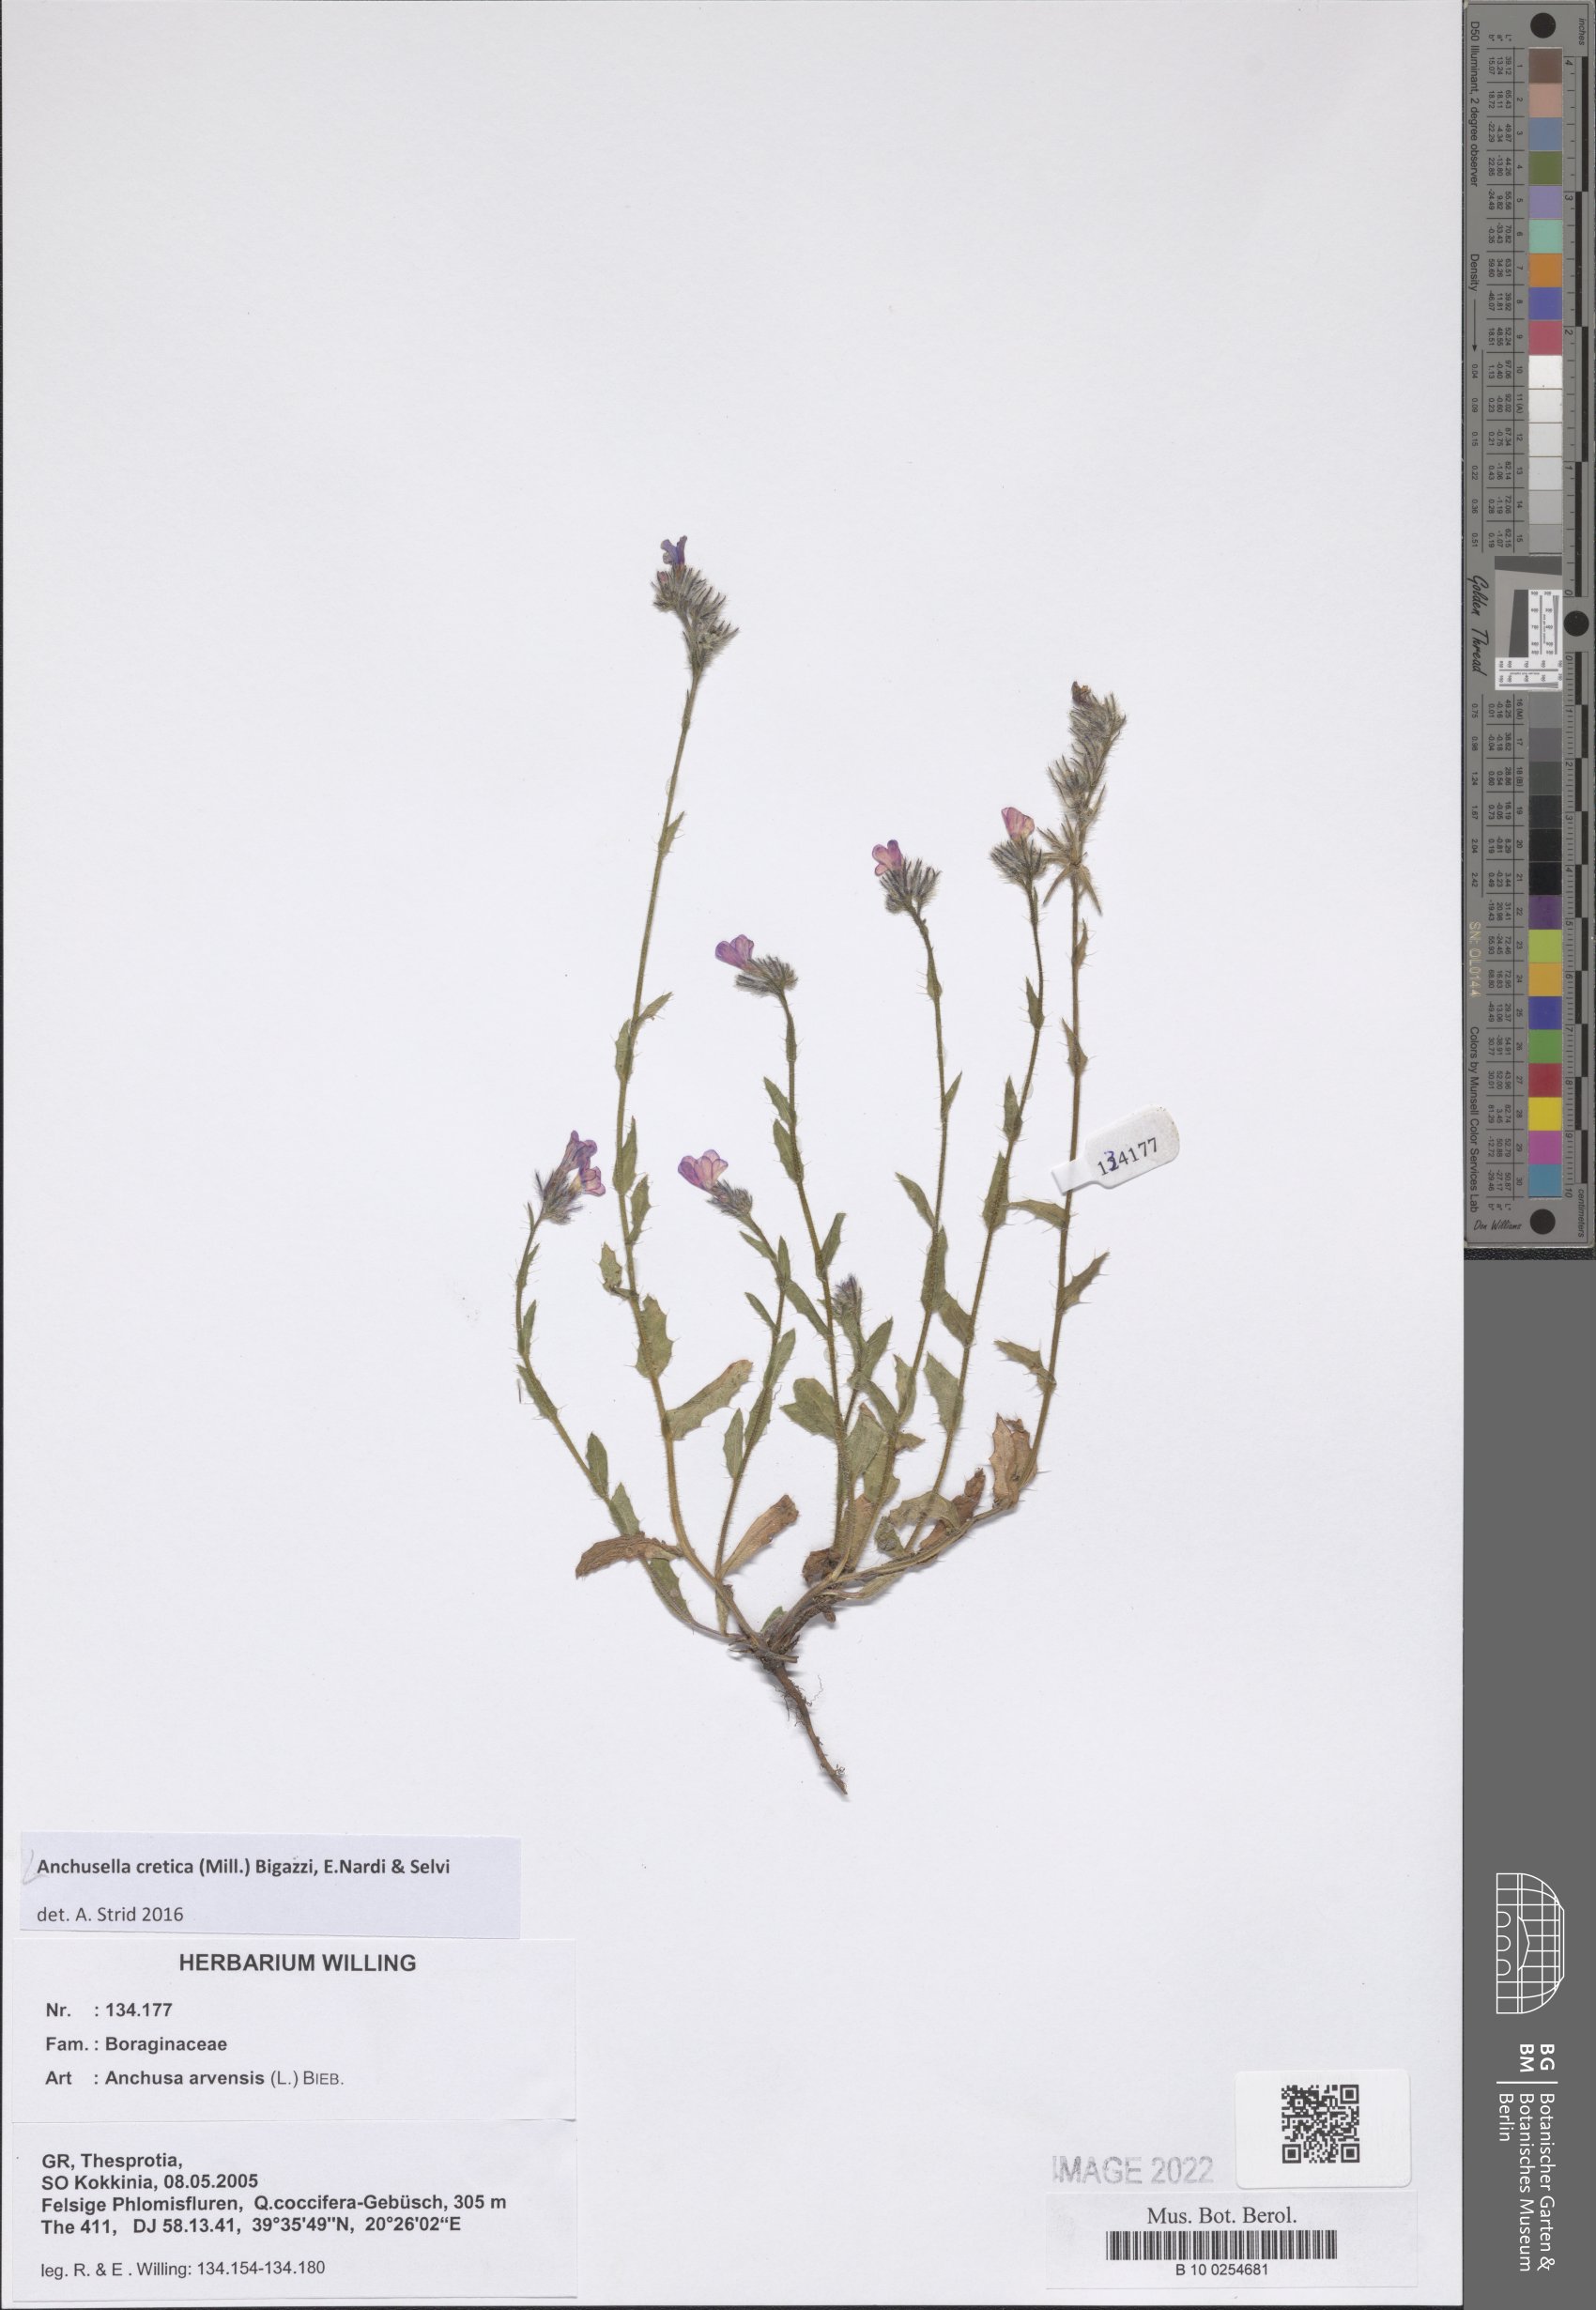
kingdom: Plantae
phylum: Tracheophyta
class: Magnoliopsida
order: Boraginales
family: Boraginaceae
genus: Anchusella
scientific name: Anchusella cretica
